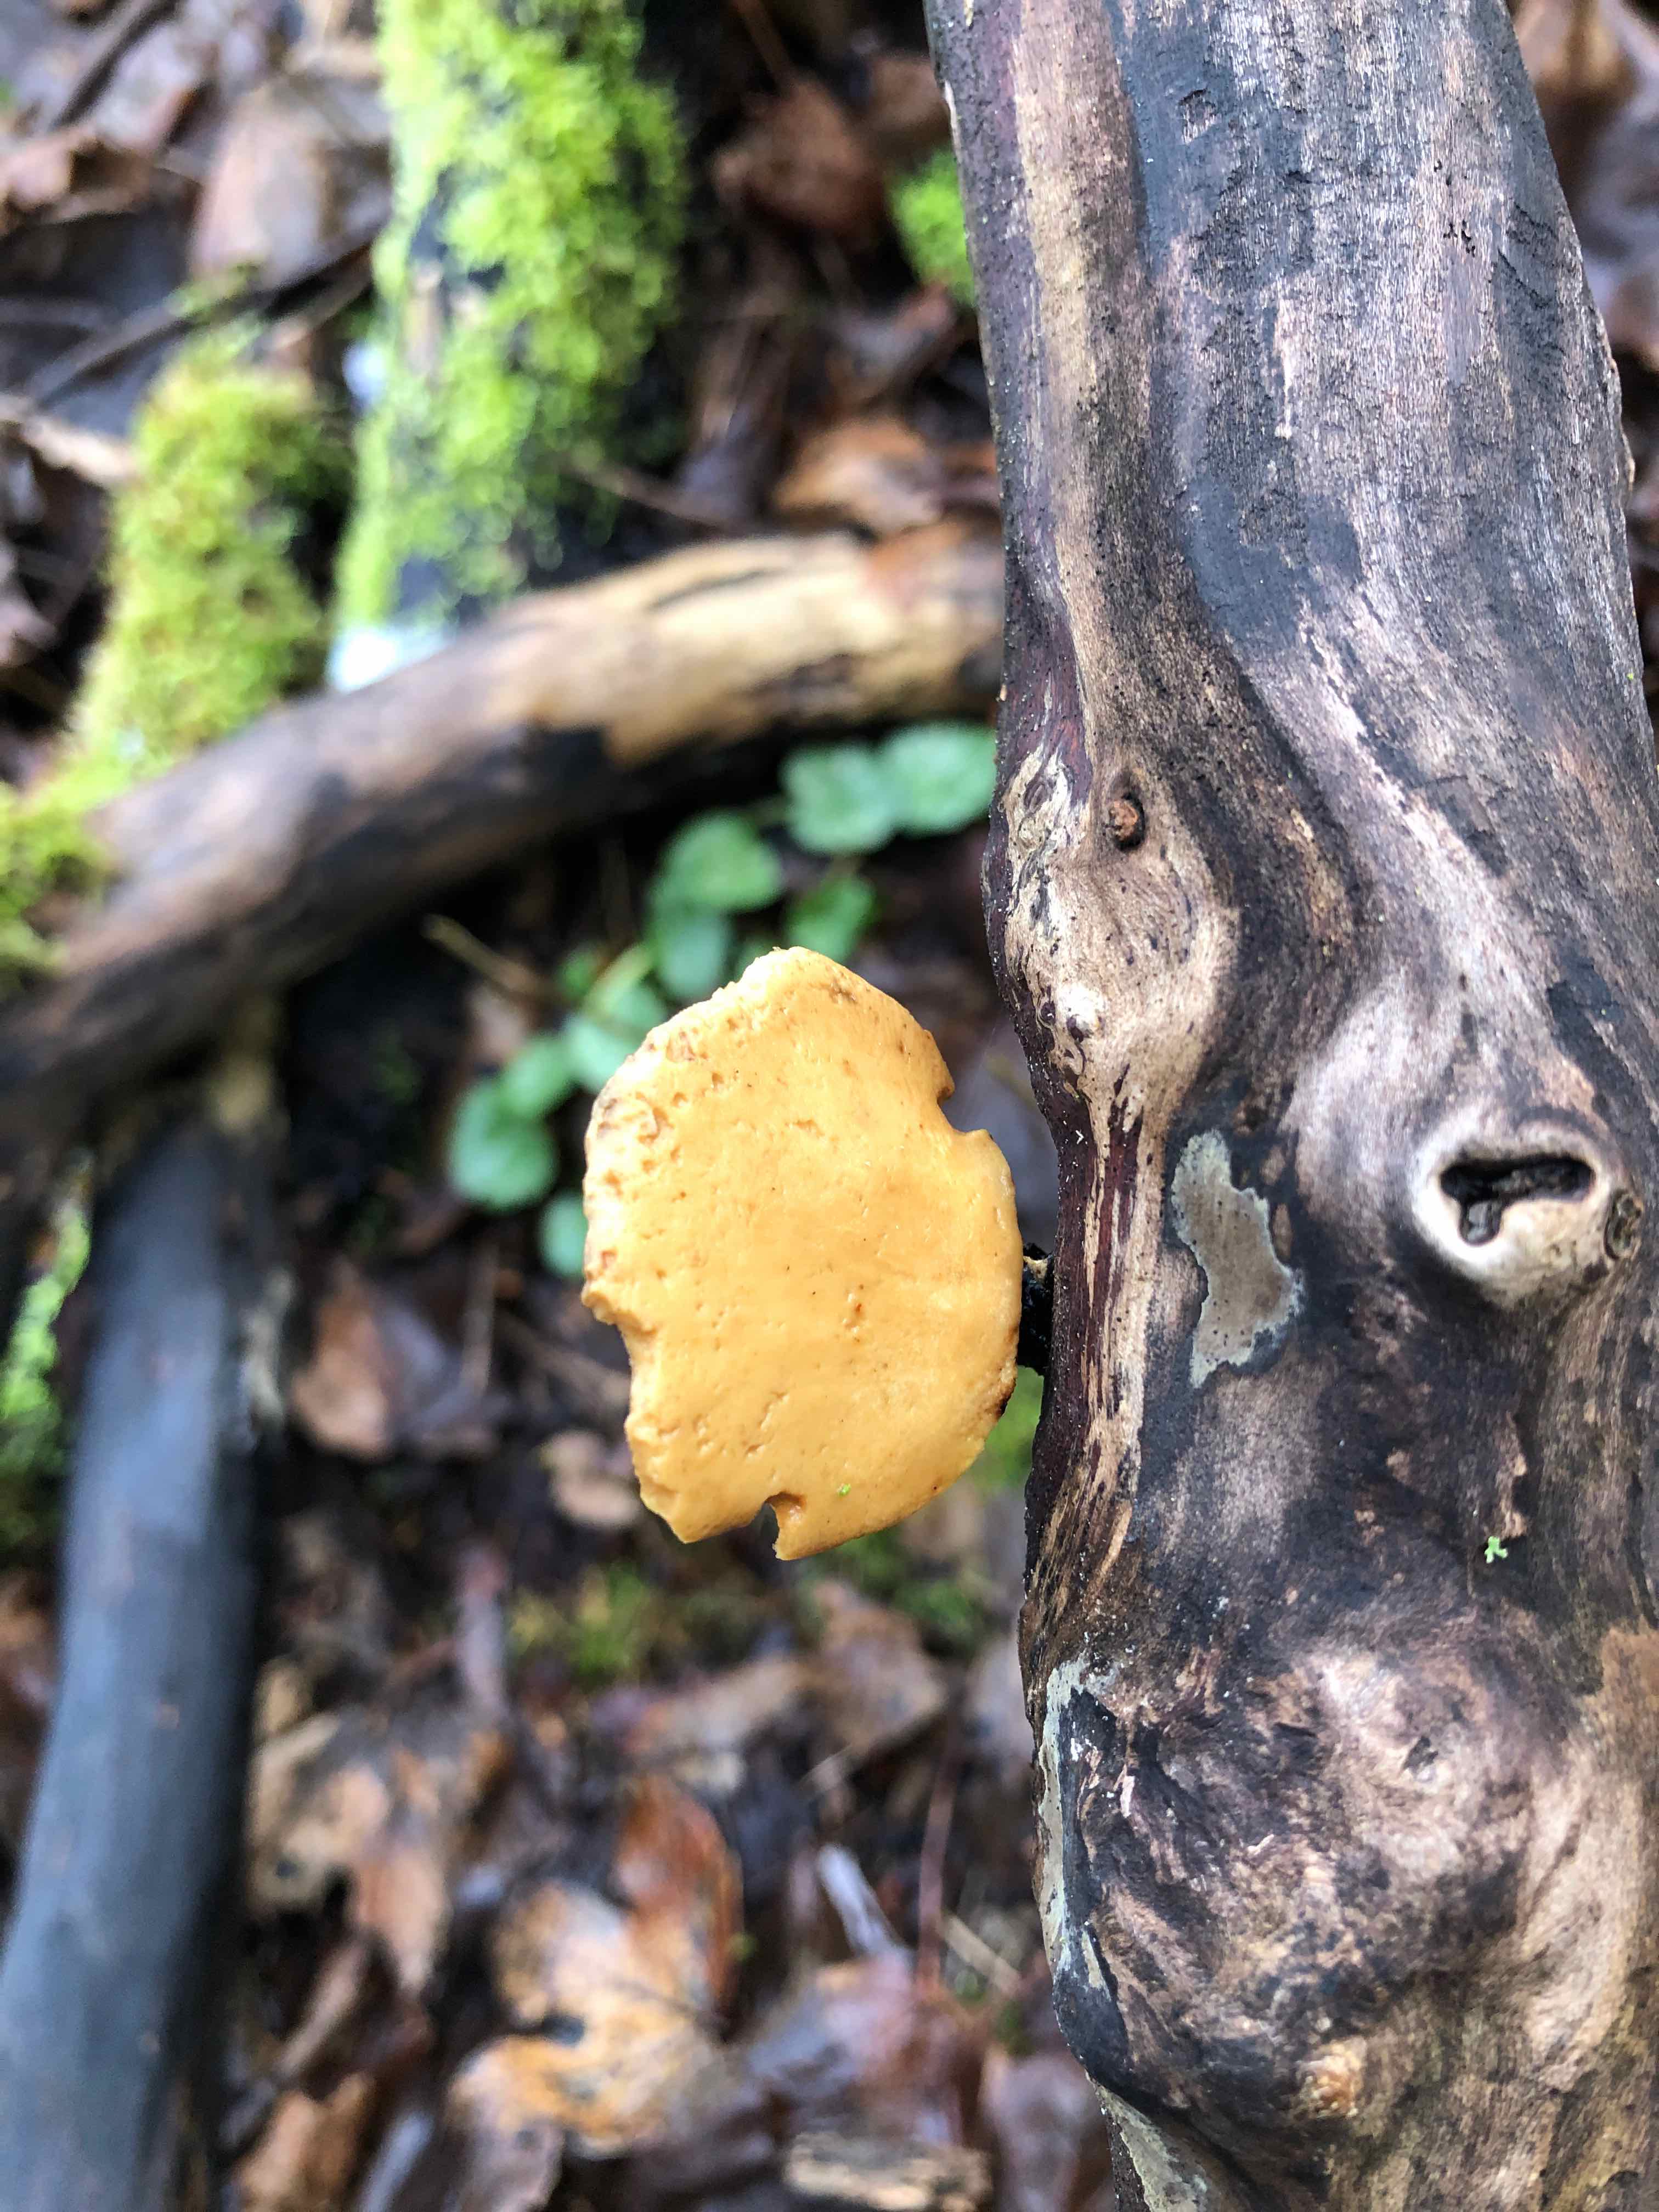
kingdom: Fungi
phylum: Basidiomycota
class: Agaricomycetes
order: Polyporales
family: Polyporaceae
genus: Cerioporus
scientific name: Cerioporus varius
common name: foranderlig stilkporesvamp
